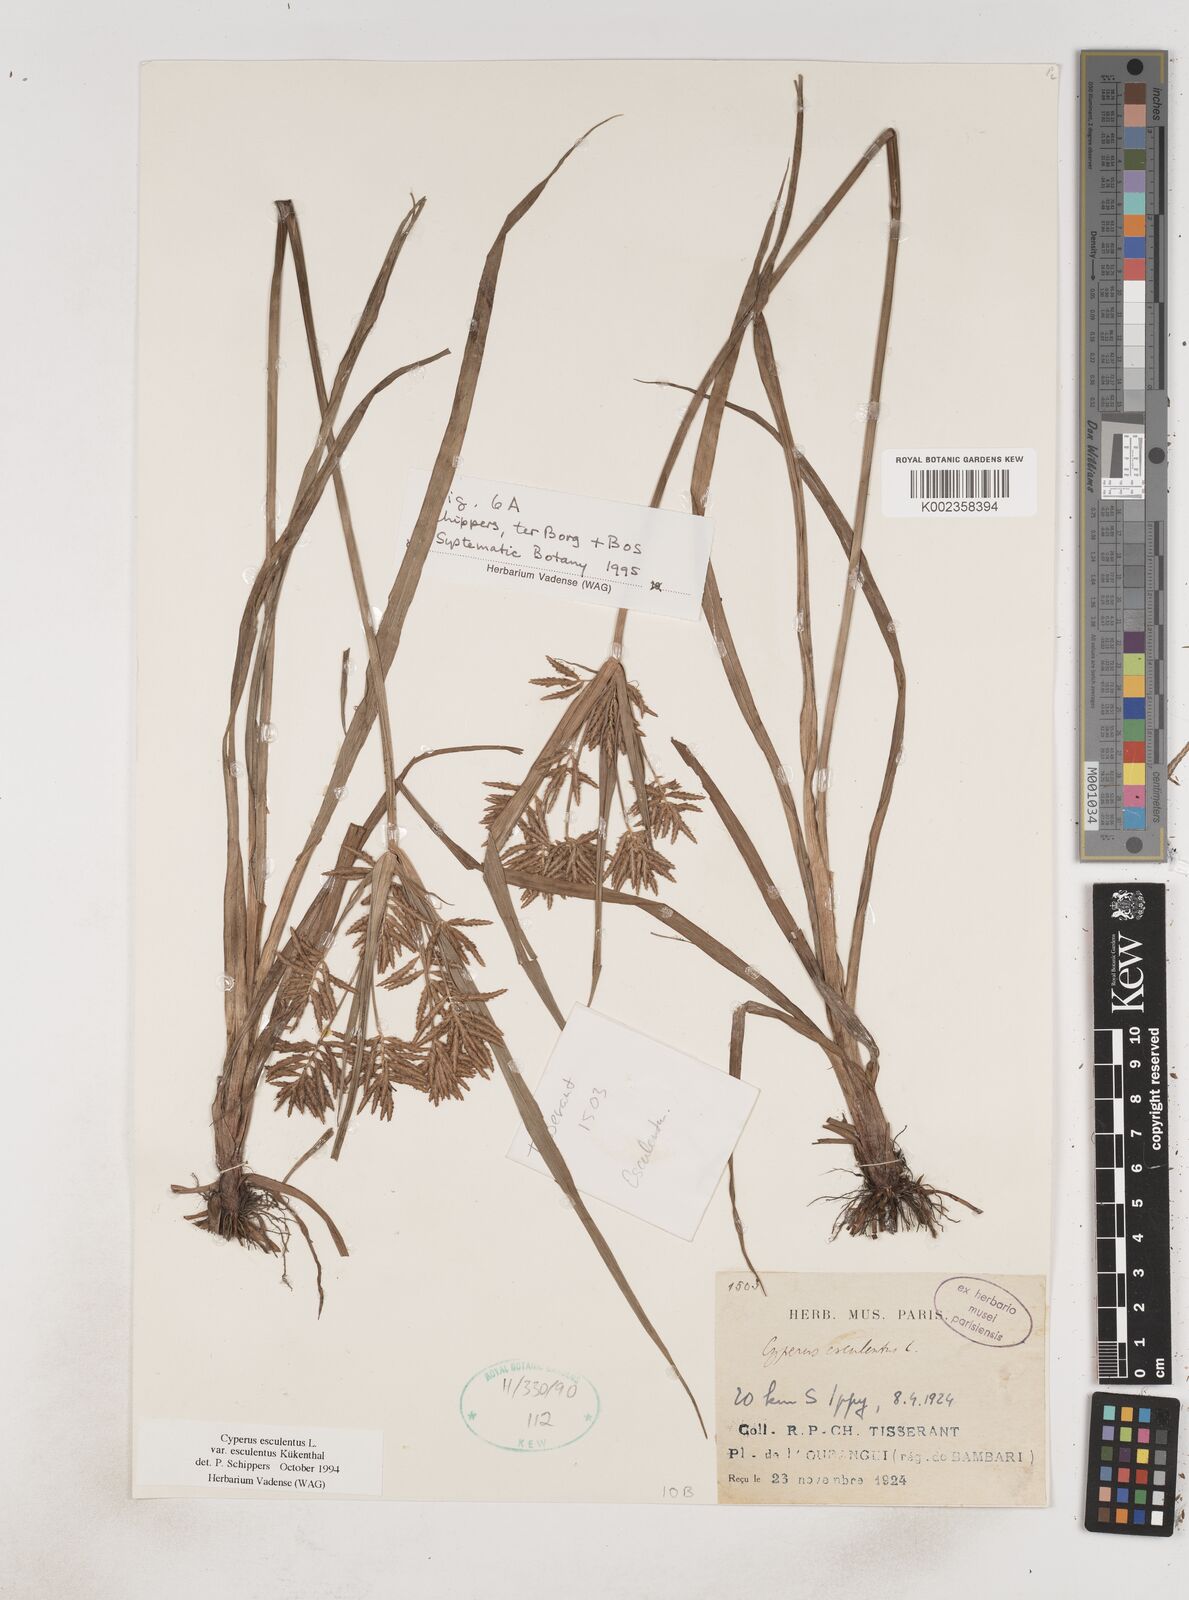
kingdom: Plantae
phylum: Tracheophyta
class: Liliopsida
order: Poales
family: Cyperaceae
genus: Cyperus
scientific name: Cyperus esculentus
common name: Yellow nutsedge
